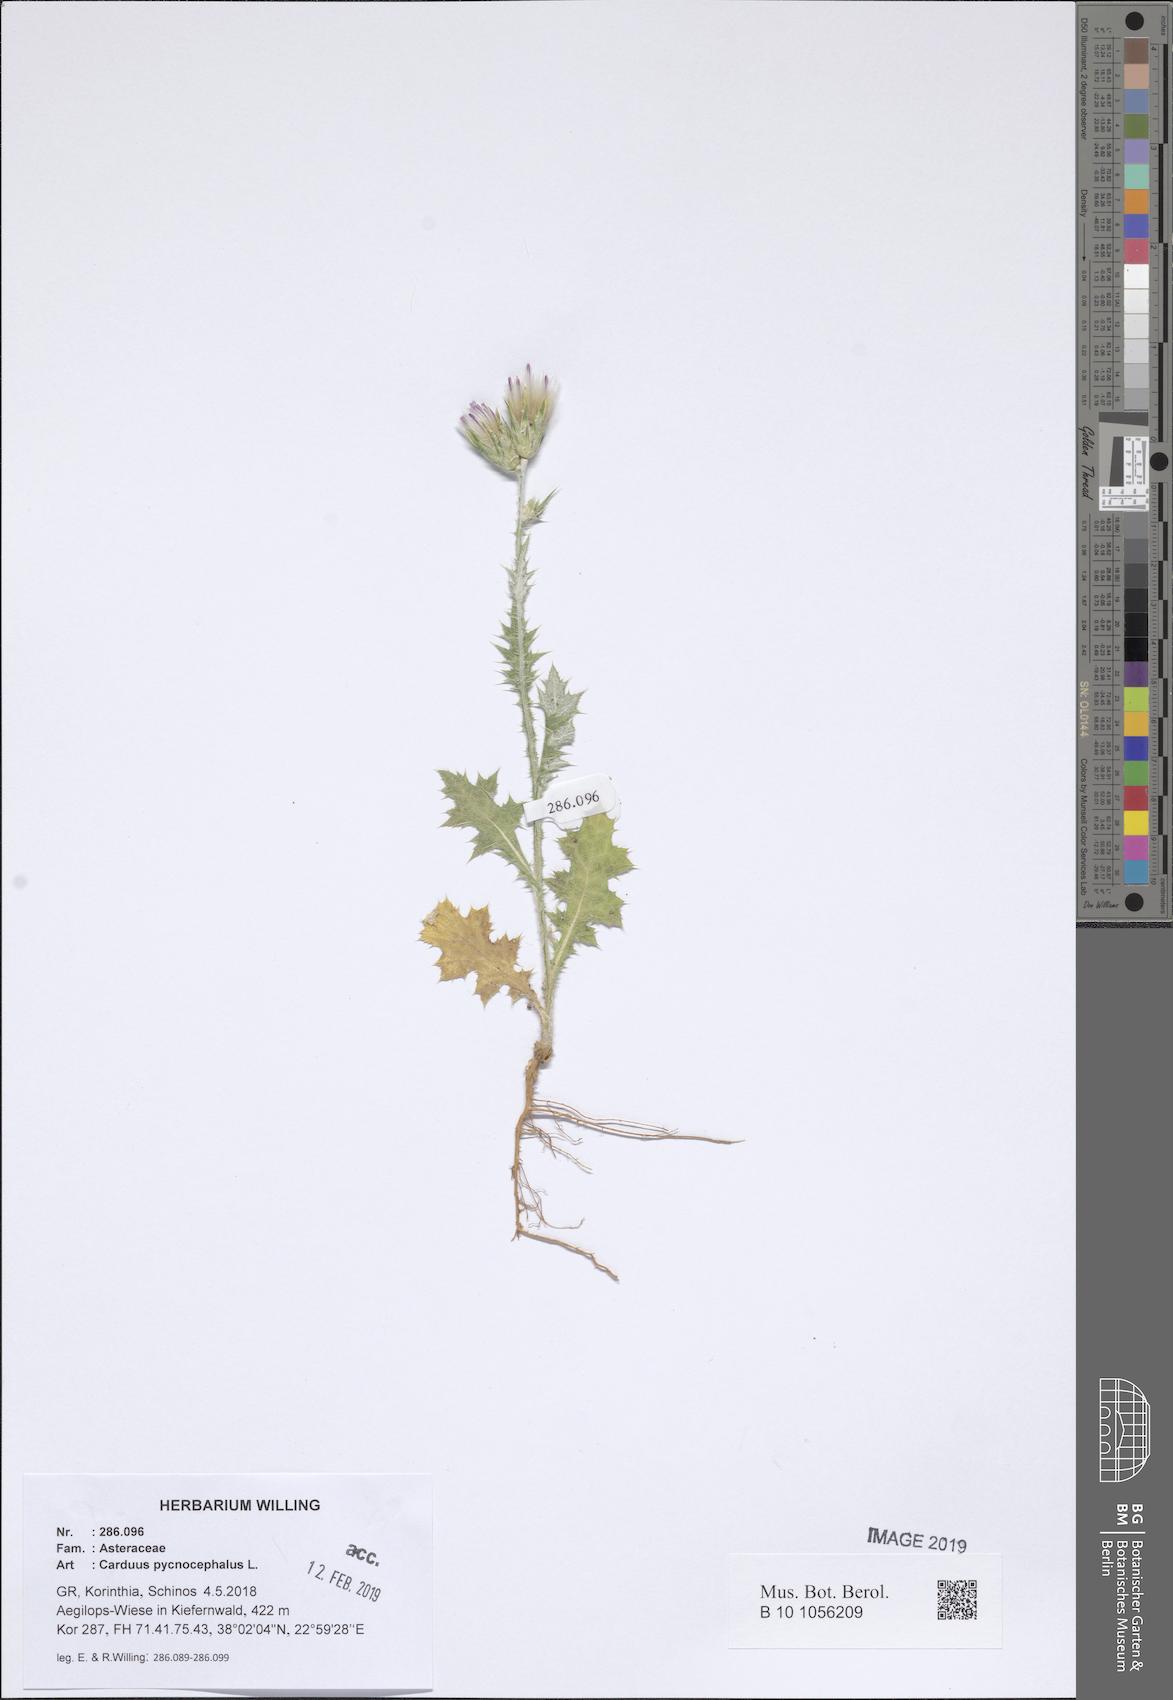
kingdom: Plantae
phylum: Tracheophyta
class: Magnoliopsida
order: Asterales
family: Asteraceae
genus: Carduus
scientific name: Carduus pycnocephalus
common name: Plymouth thistle
